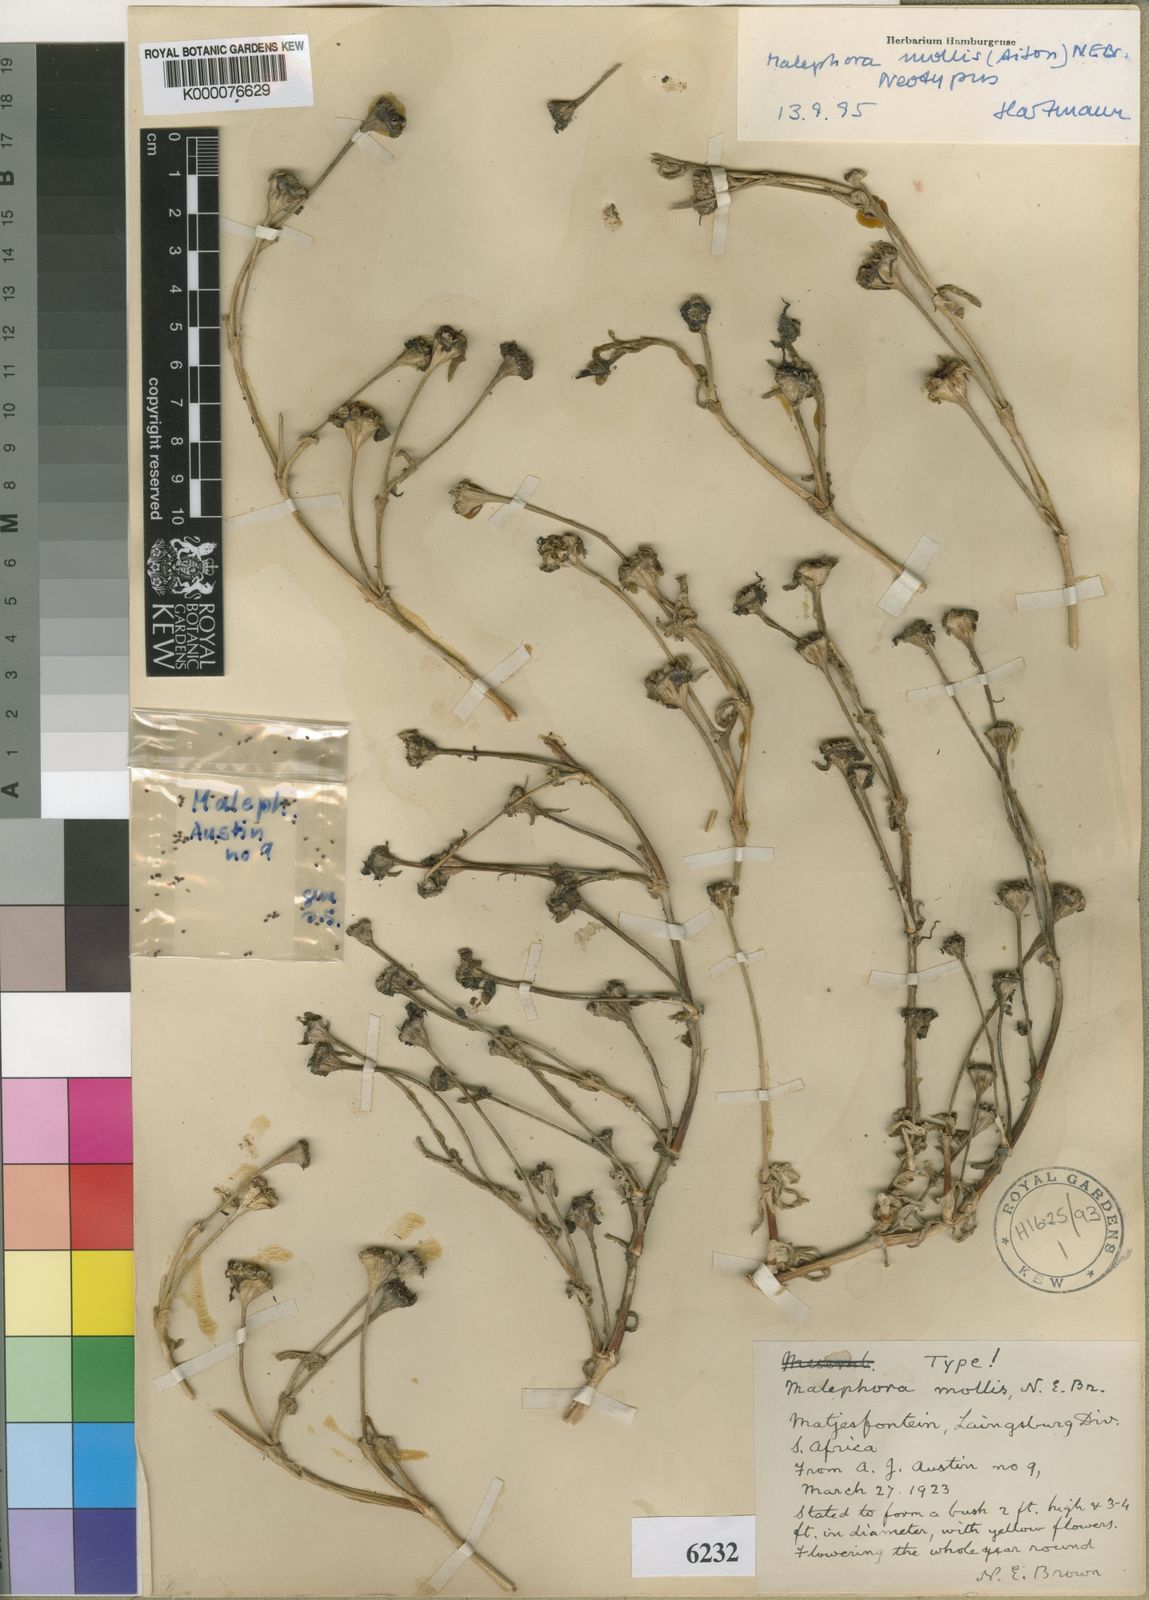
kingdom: Plantae
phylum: Tracheophyta
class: Magnoliopsida
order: Caryophyllales
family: Aizoaceae
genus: Malephora
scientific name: Malephora mollis
